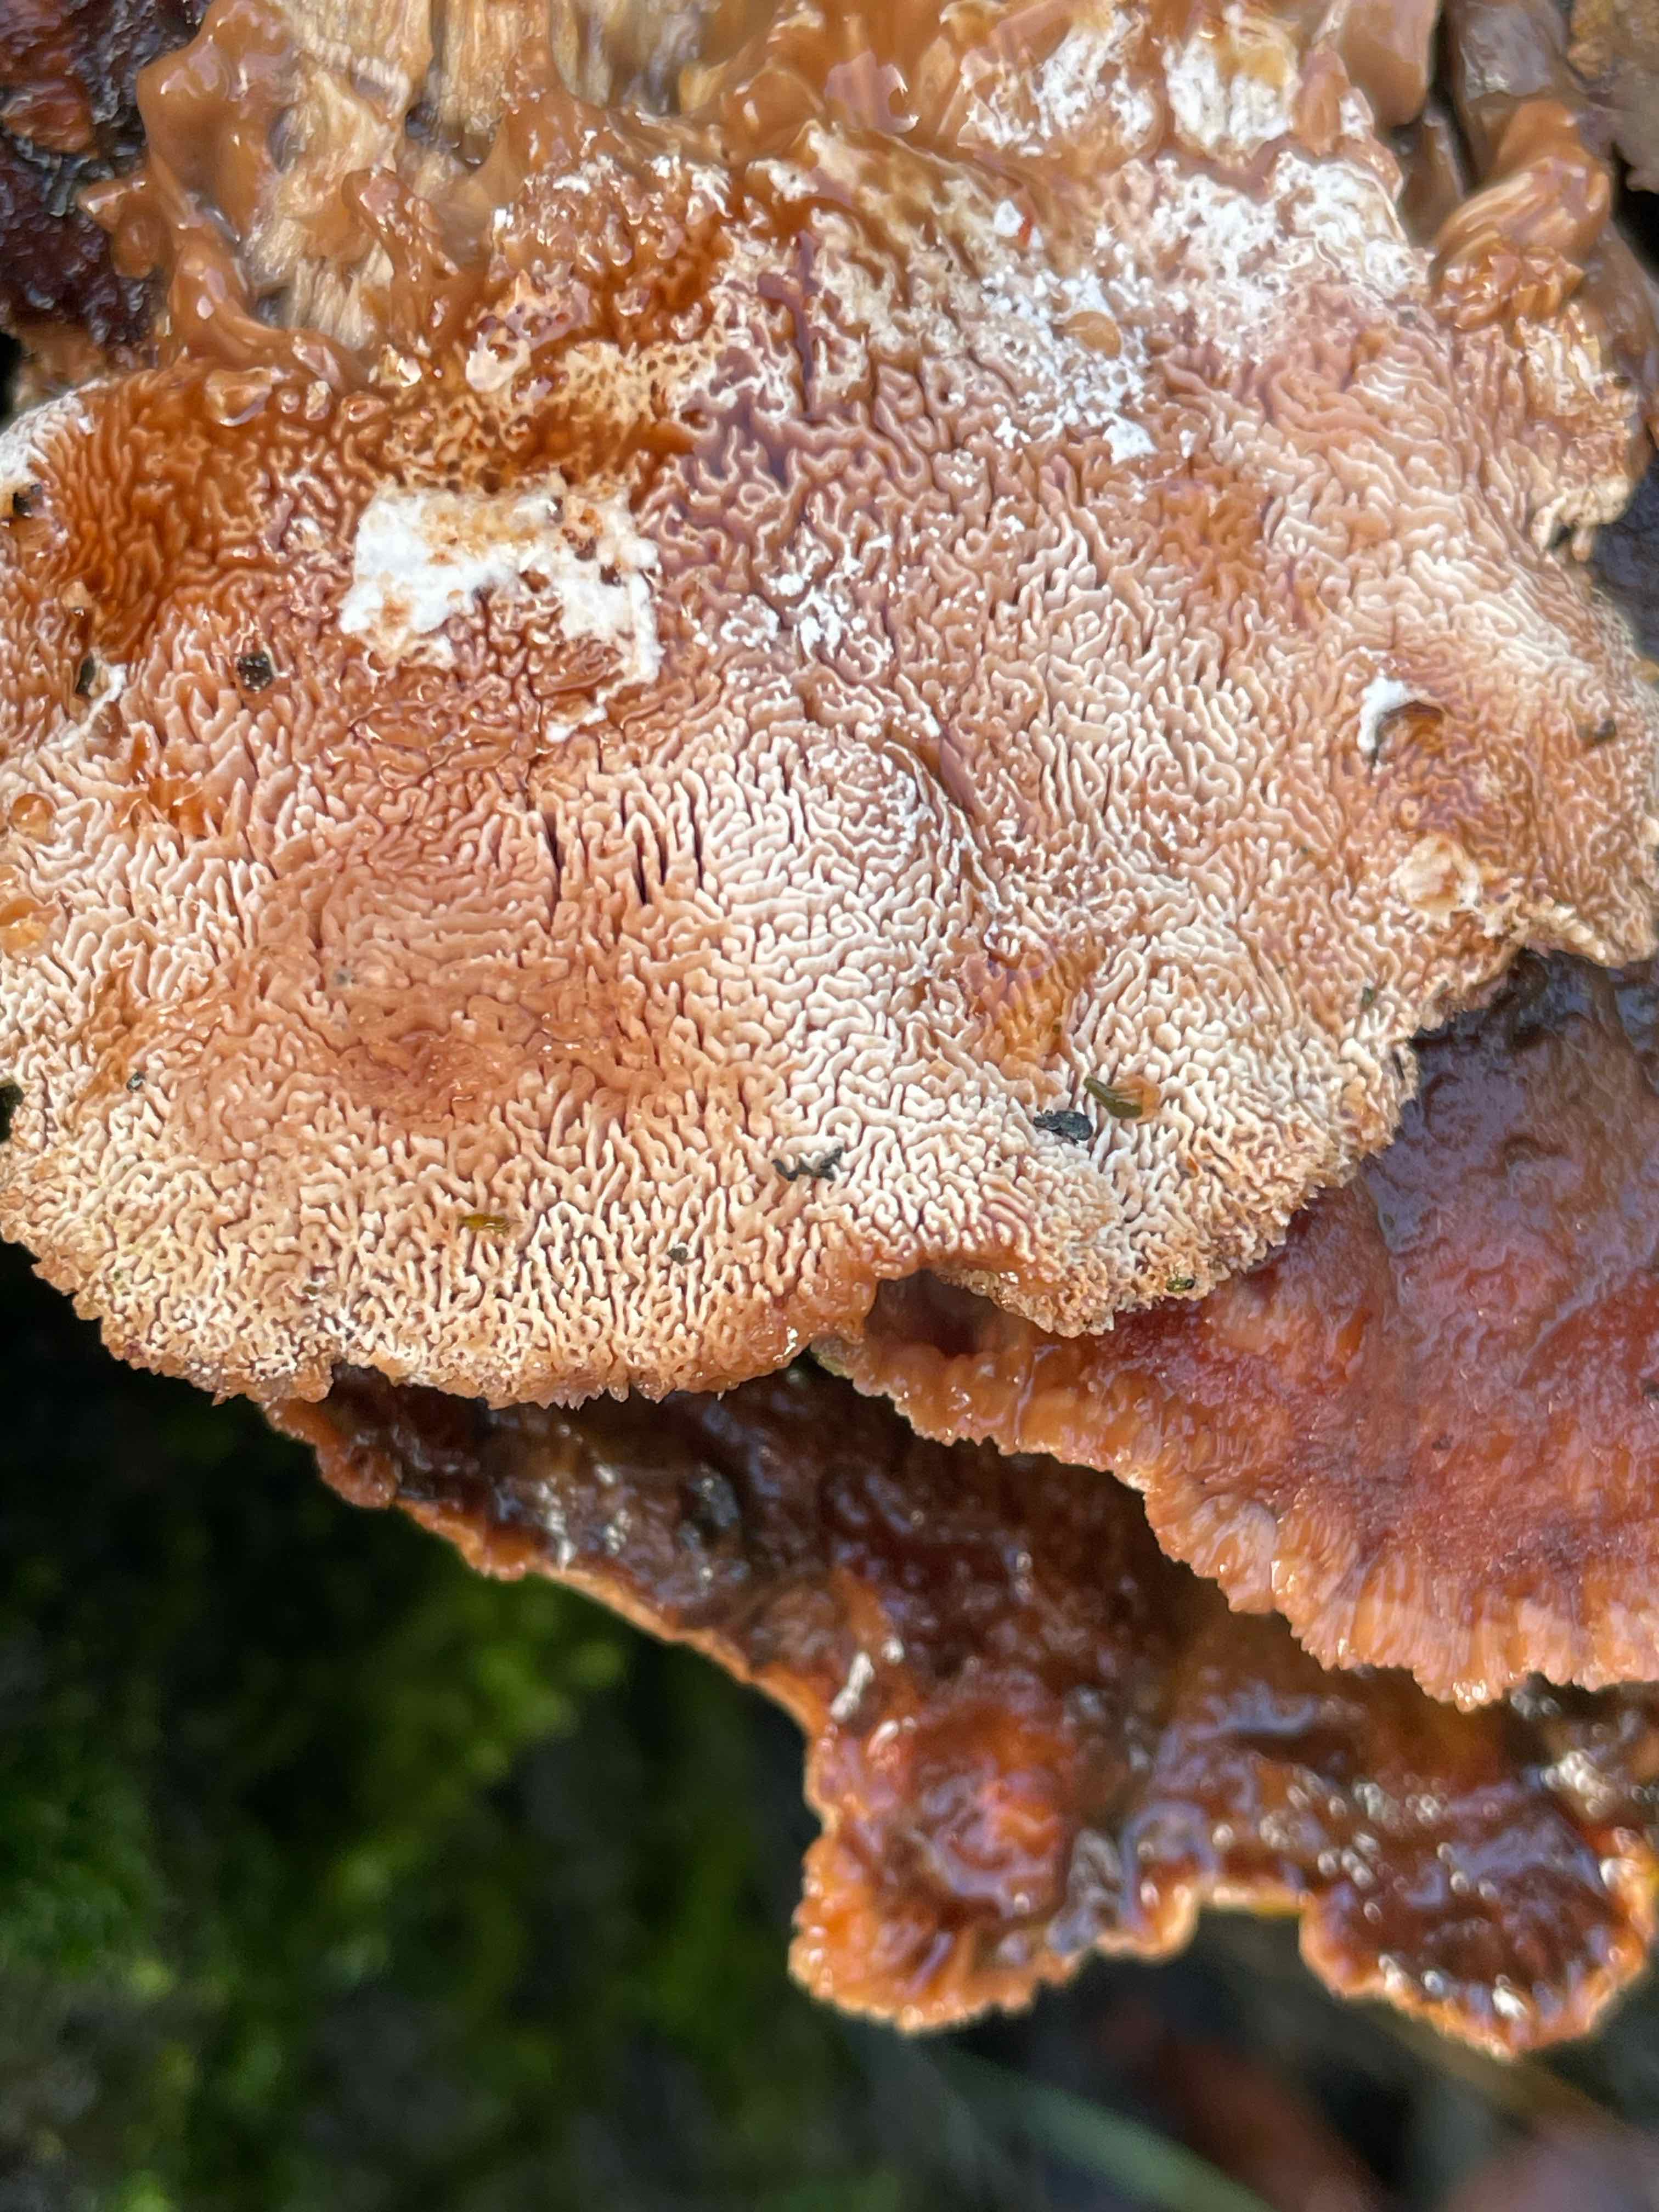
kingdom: Fungi
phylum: Basidiomycota
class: Agaricomycetes
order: Polyporales
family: Podoscyphaceae
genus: Abortiporus
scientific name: Abortiporus biennis
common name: rødmende pjalteporesvamp
